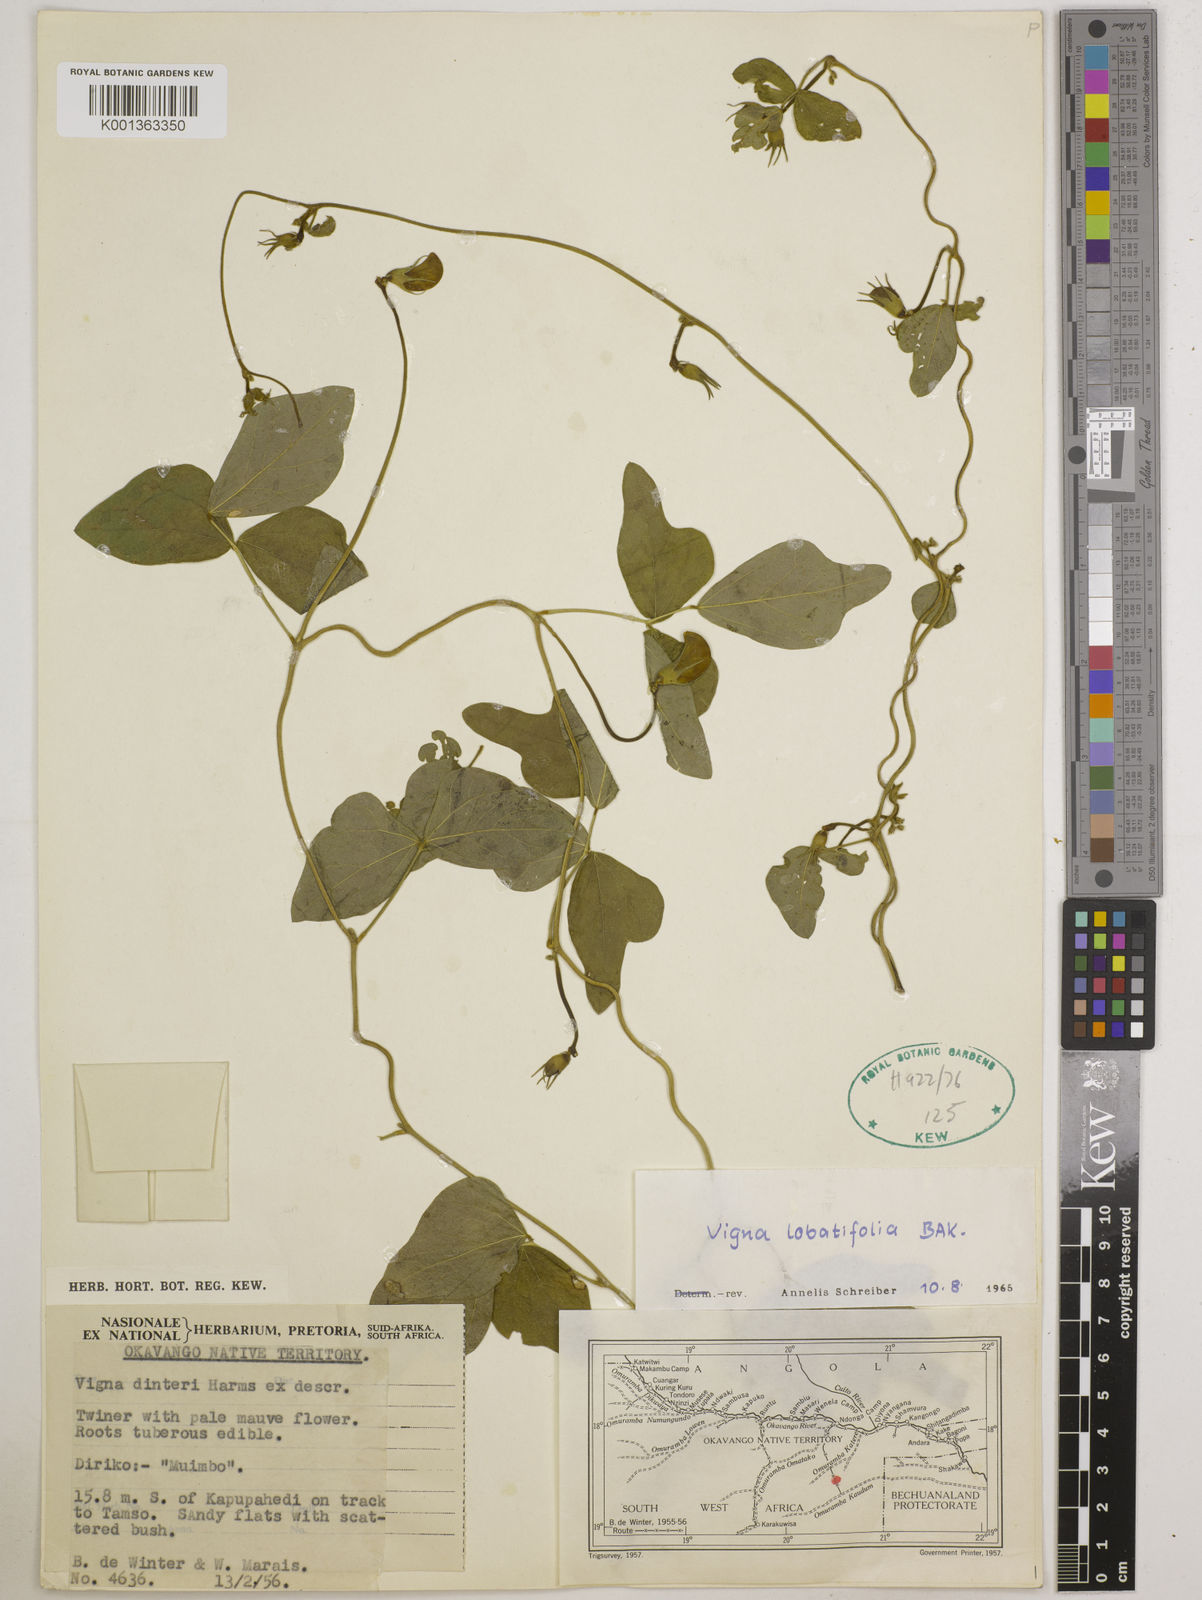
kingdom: Plantae
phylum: Tracheophyta
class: Magnoliopsida
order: Fabales
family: Fabaceae
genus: Vigna
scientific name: Vigna lobatifolia
